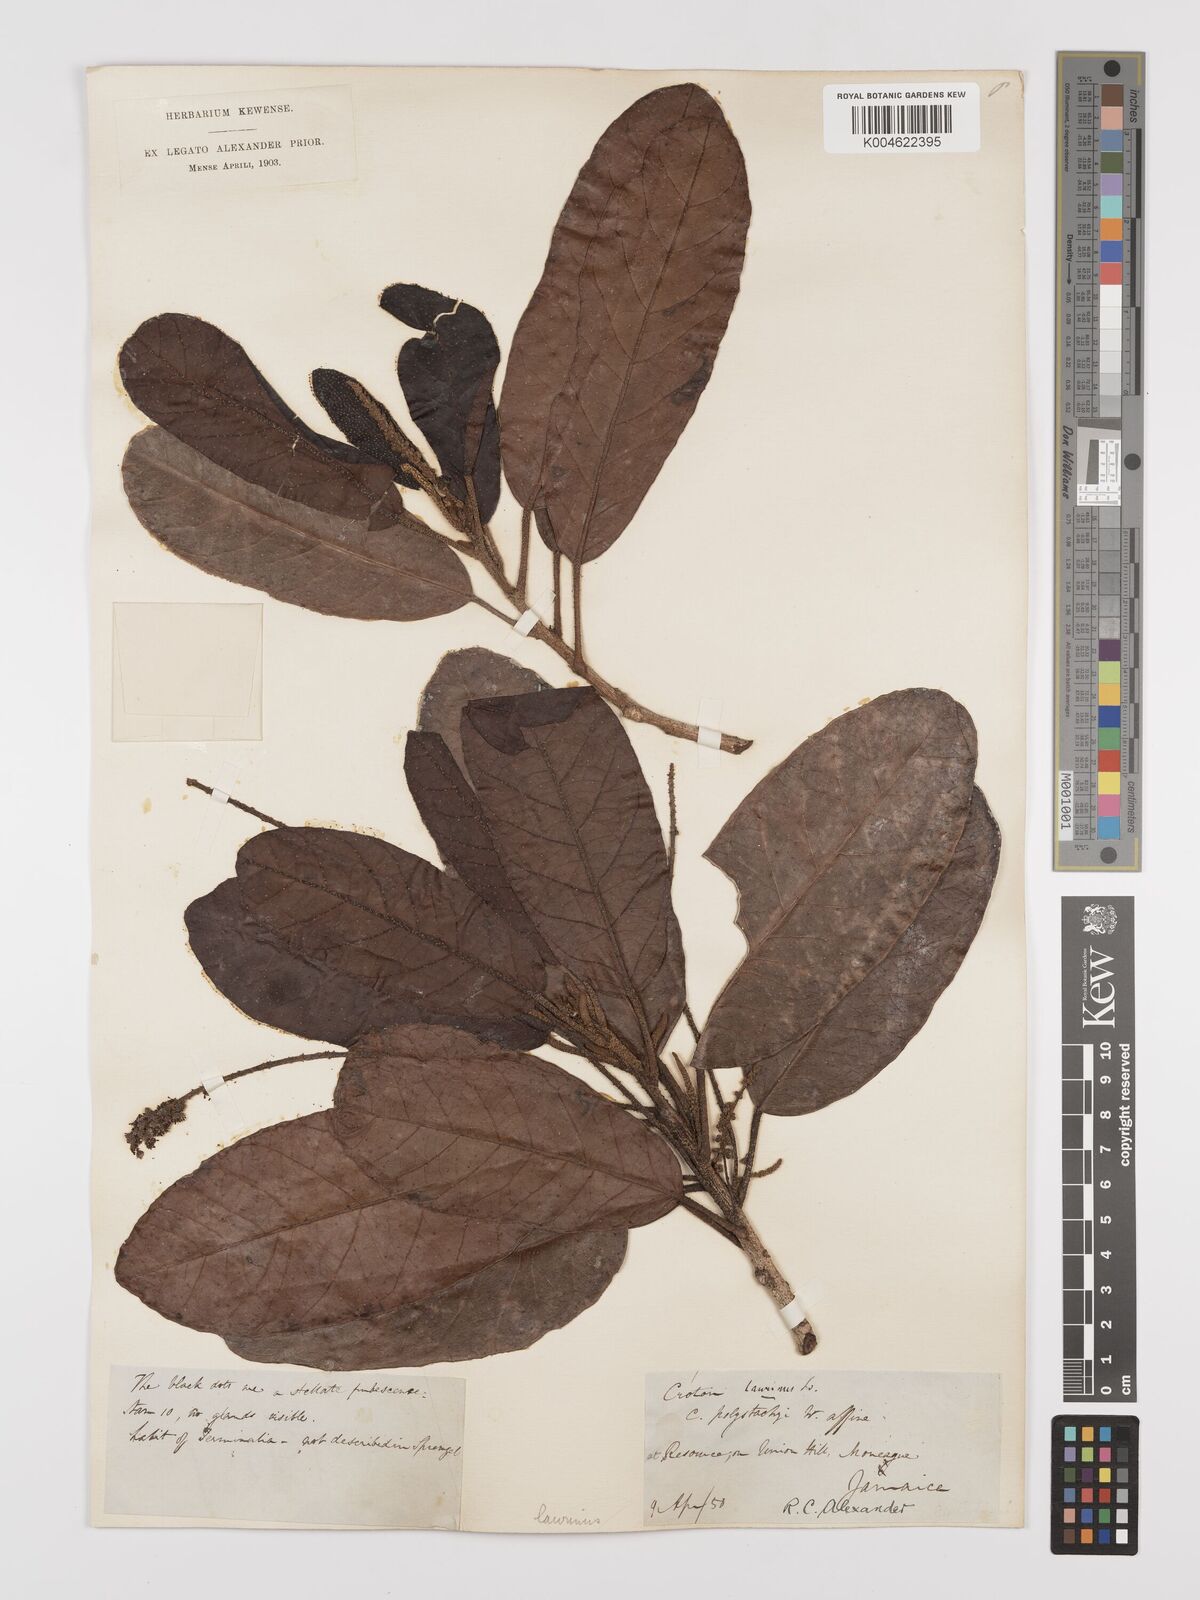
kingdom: Plantae
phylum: Tracheophyta
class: Magnoliopsida
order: Malpighiales
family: Euphorbiaceae
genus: Croton
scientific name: Croton laurinus
